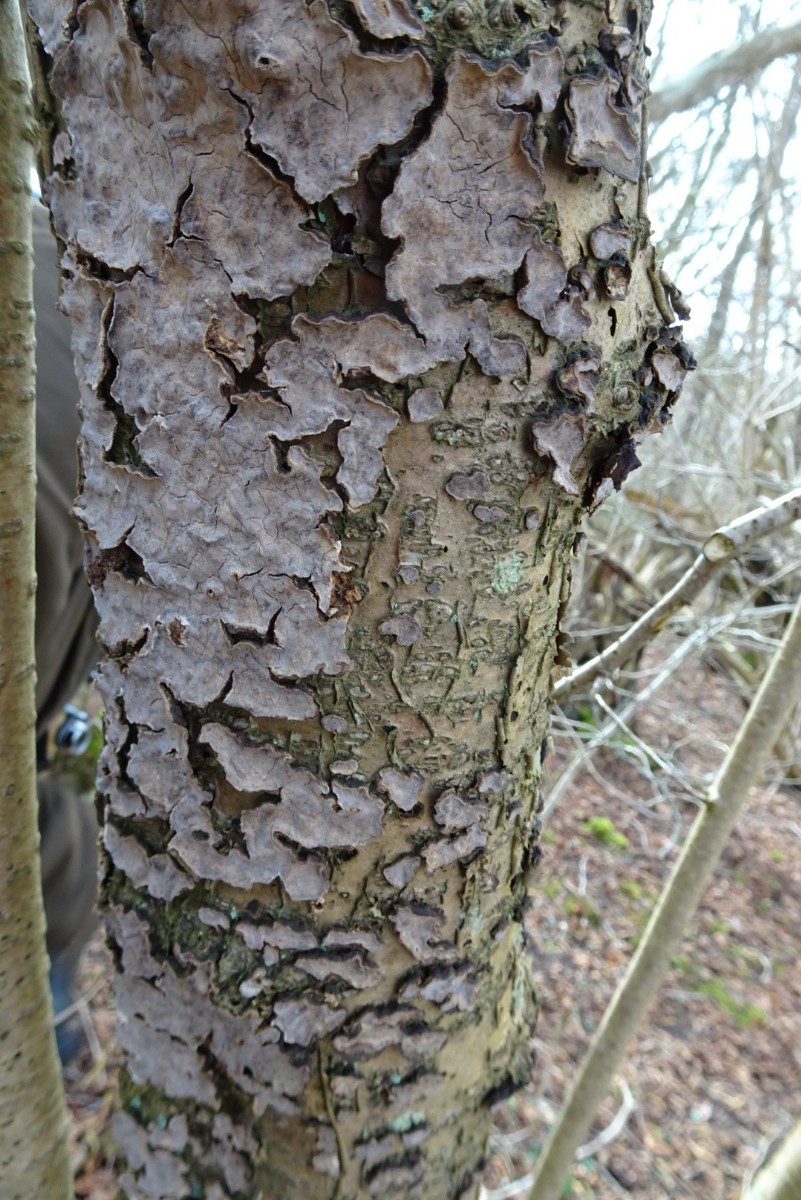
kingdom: Fungi
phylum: Basidiomycota
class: Agaricomycetes
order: Russulales
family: Stereaceae
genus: Stereum
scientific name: Stereum rugosum
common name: rynket lædersvamp
